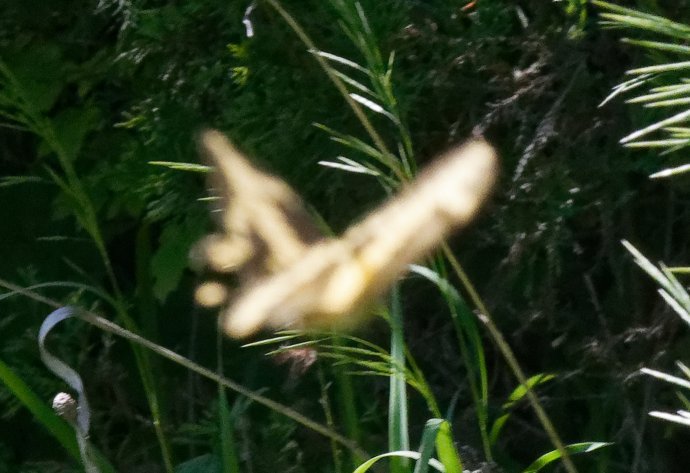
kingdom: Animalia
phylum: Arthropoda
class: Insecta
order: Lepidoptera
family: Papilionidae
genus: Papilio
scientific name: Papilio cresphontes
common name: Eastern Giant Swallowtail
